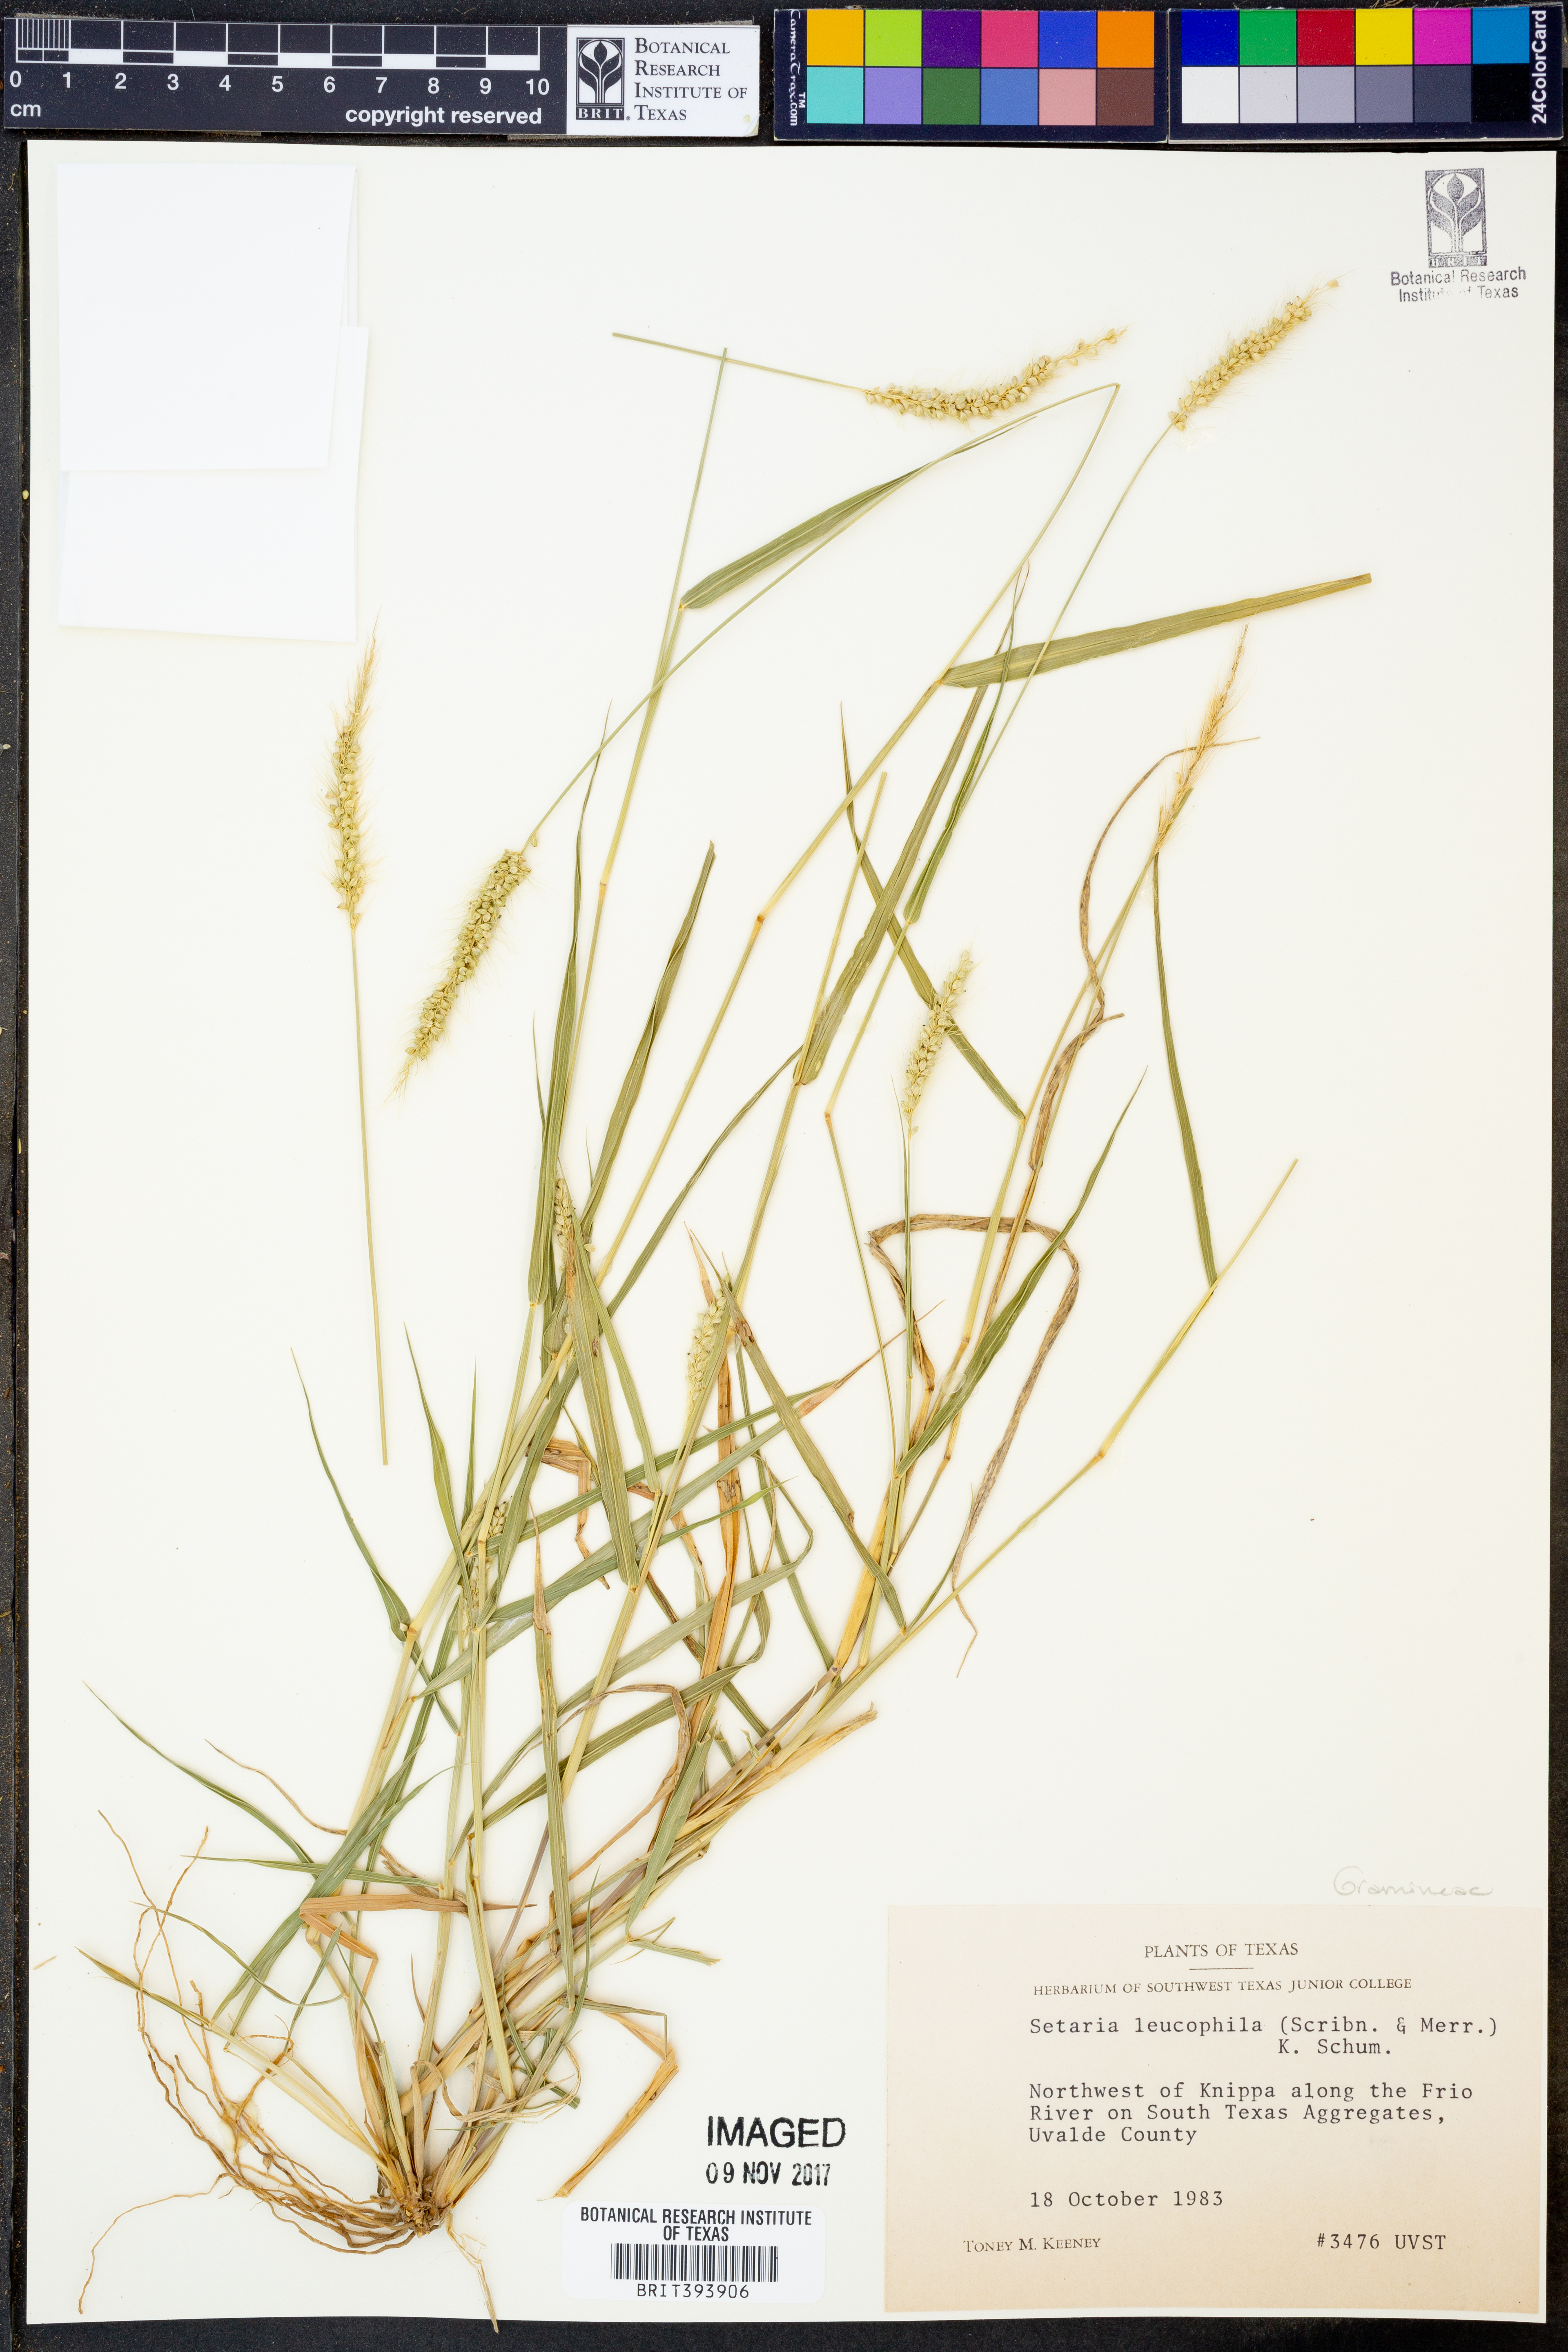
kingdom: Plantae
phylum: Tracheophyta
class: Liliopsida
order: Poales
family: Poaceae
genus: Setaria
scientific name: Setaria leucopila
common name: Plains bristle grass
